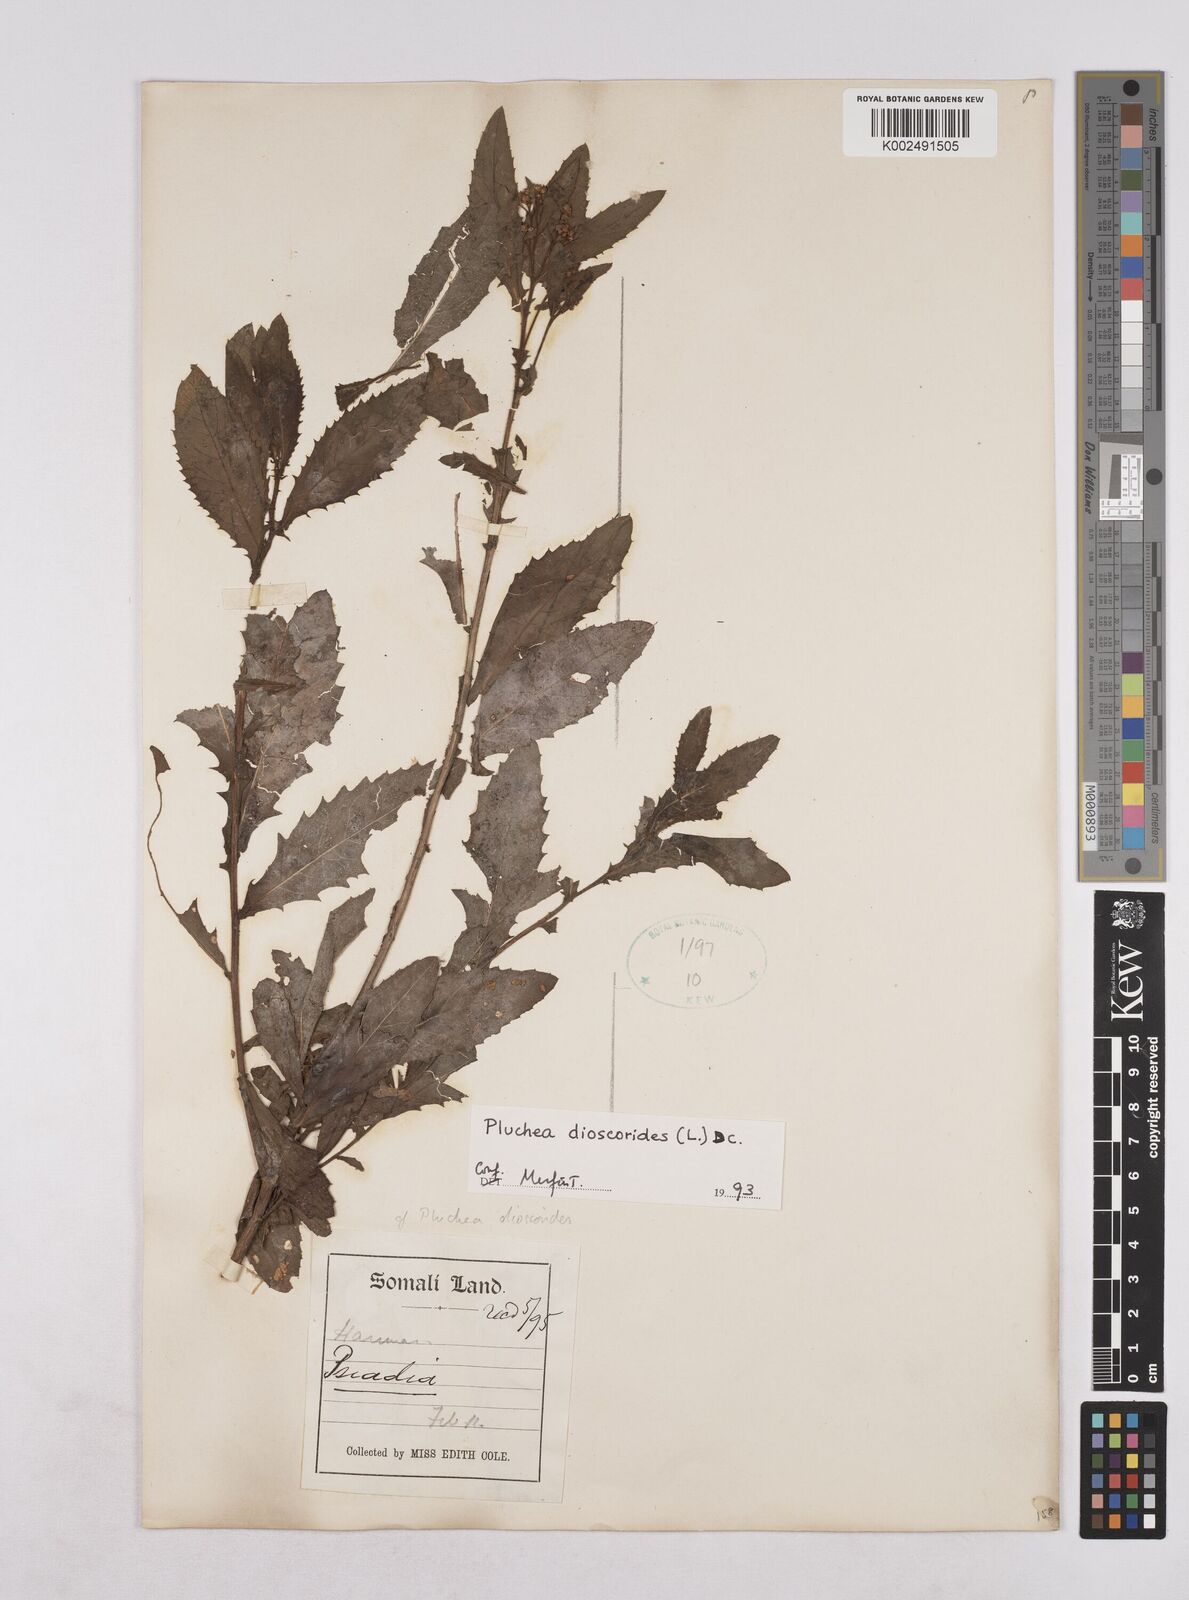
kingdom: Plantae
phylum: Tracheophyta
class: Magnoliopsida
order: Asterales
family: Asteraceae
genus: Pluchea
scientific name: Pluchea dioscoridis
